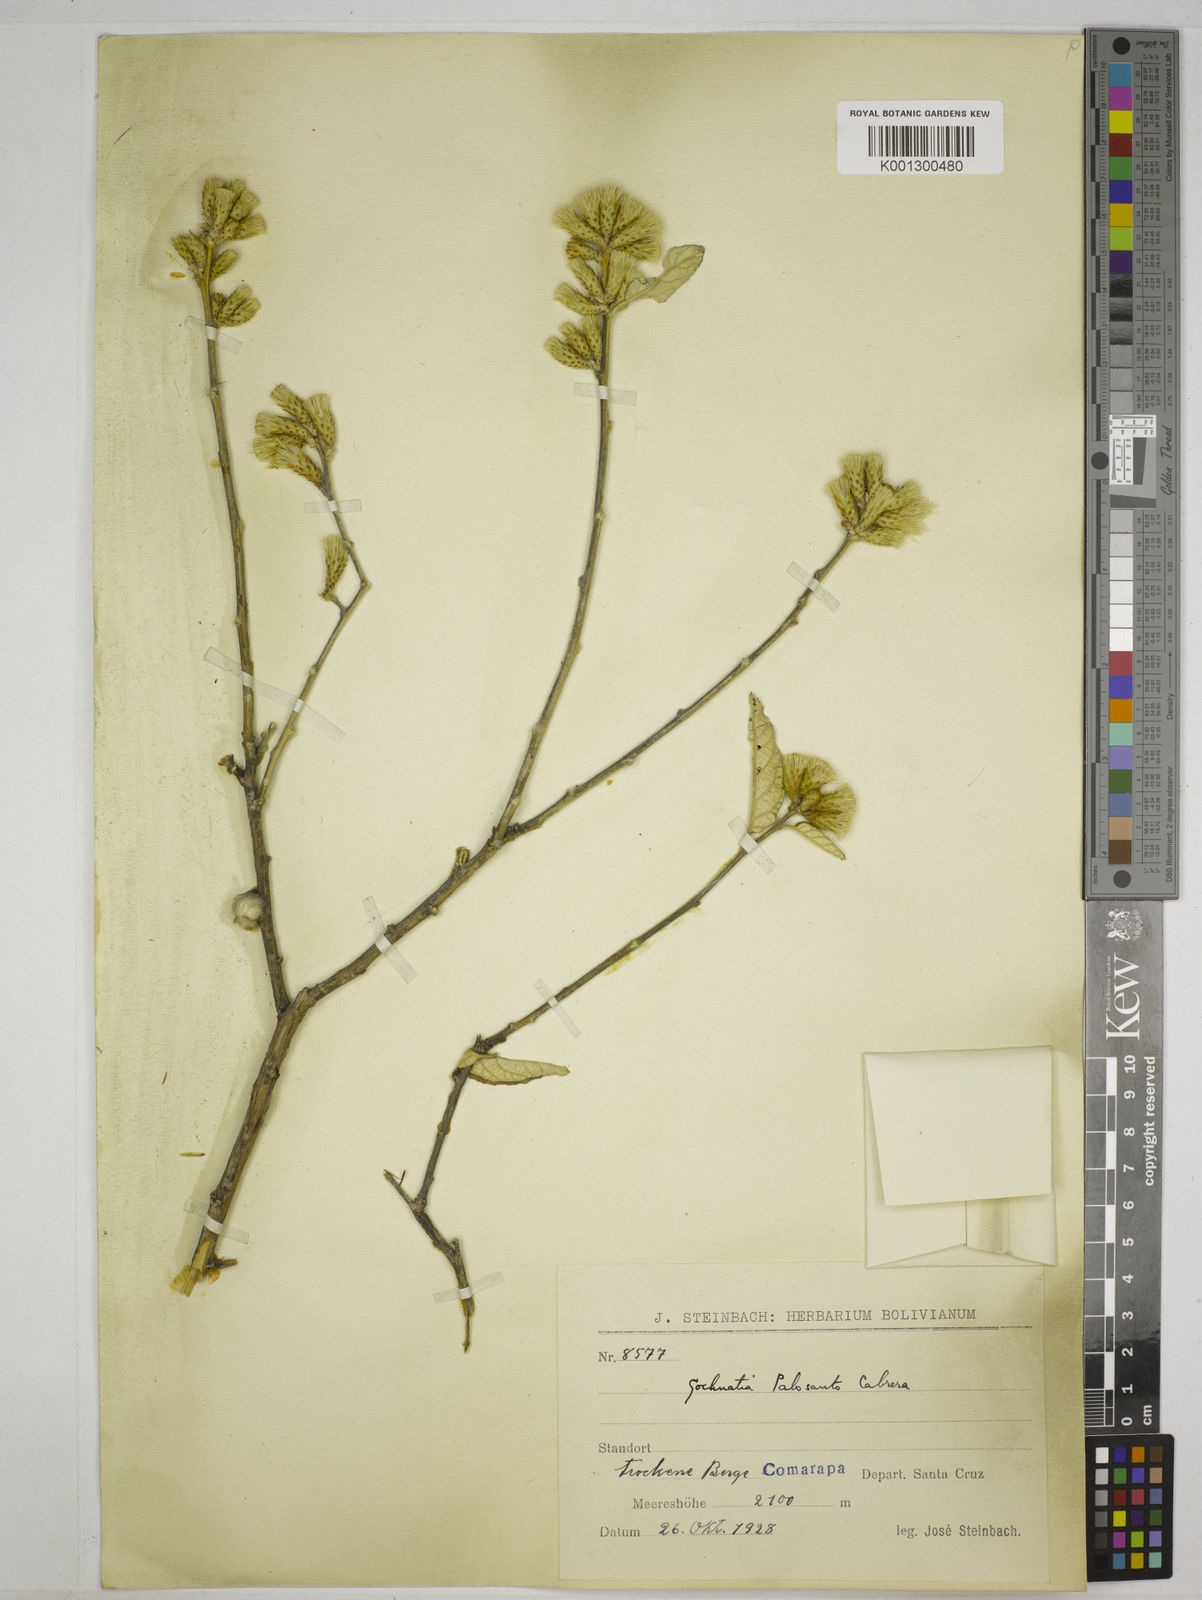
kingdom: Plantae
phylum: Tracheophyta
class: Magnoliopsida
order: Asterales
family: Asteraceae
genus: Gochnatia
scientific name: Gochnatia palosanto
